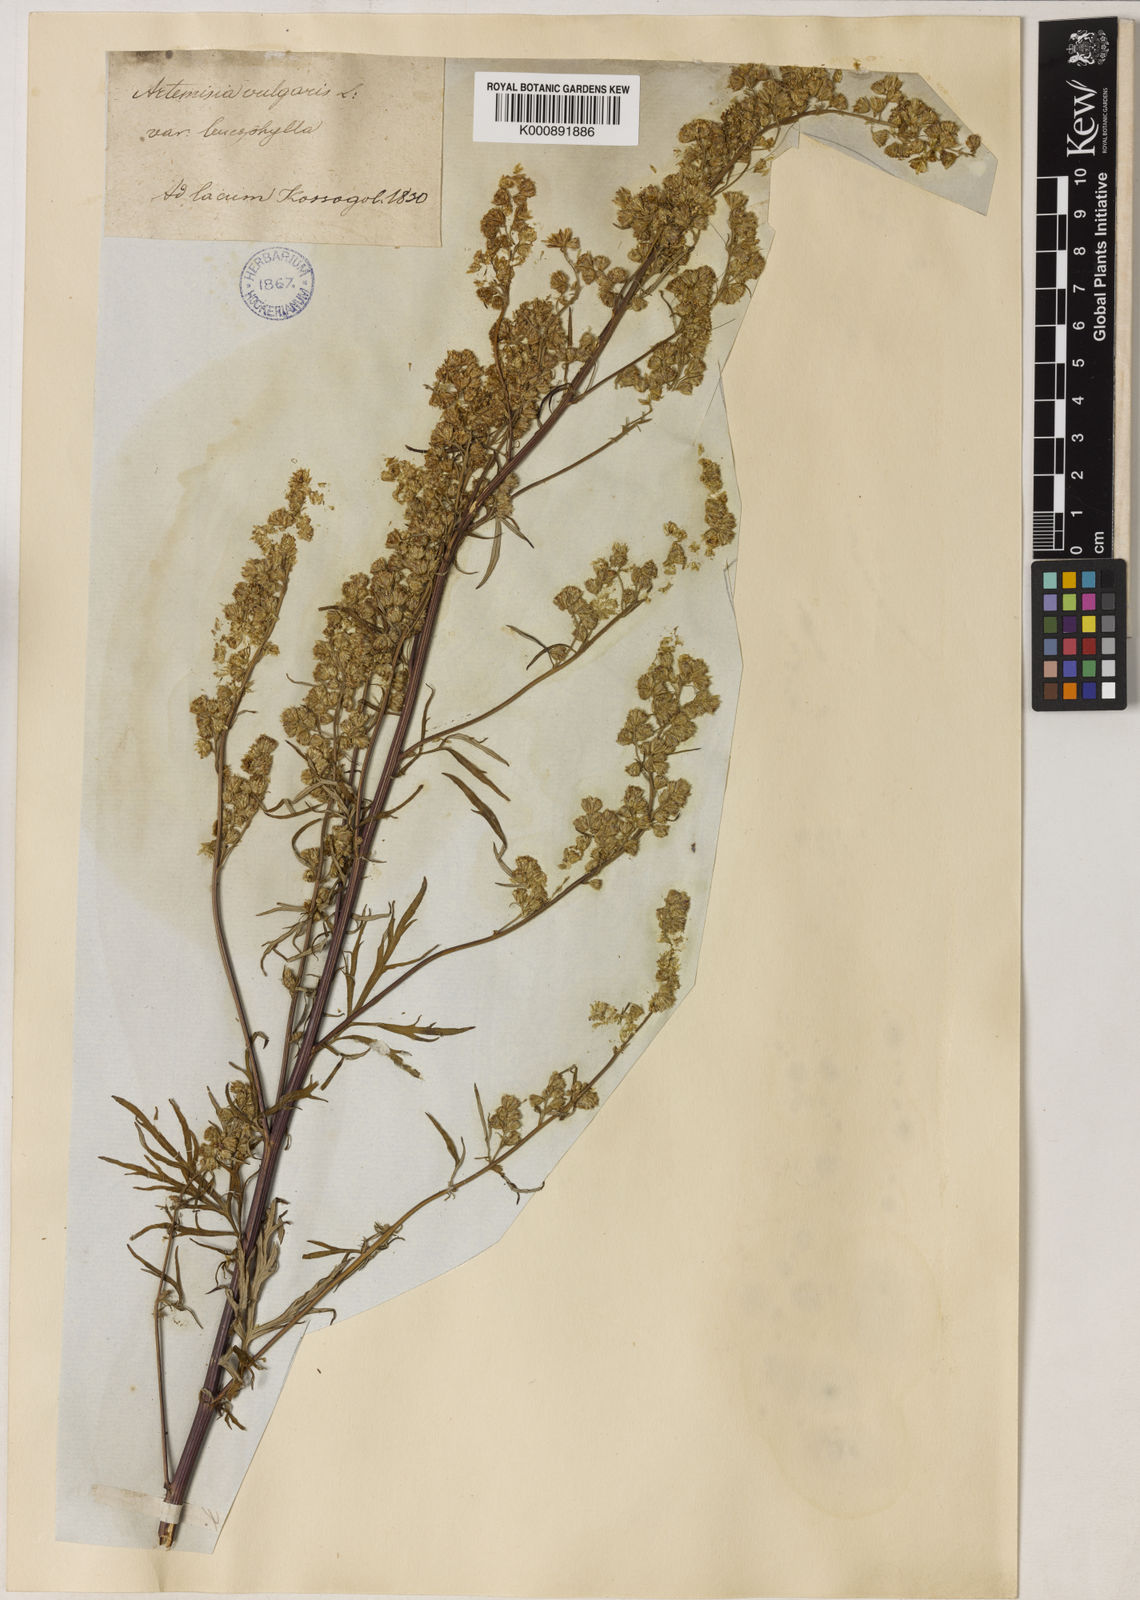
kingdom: Plantae
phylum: Tracheophyta
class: Magnoliopsida
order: Asterales
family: Asteraceae
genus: Artemisia
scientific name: Artemisia leucophylla
